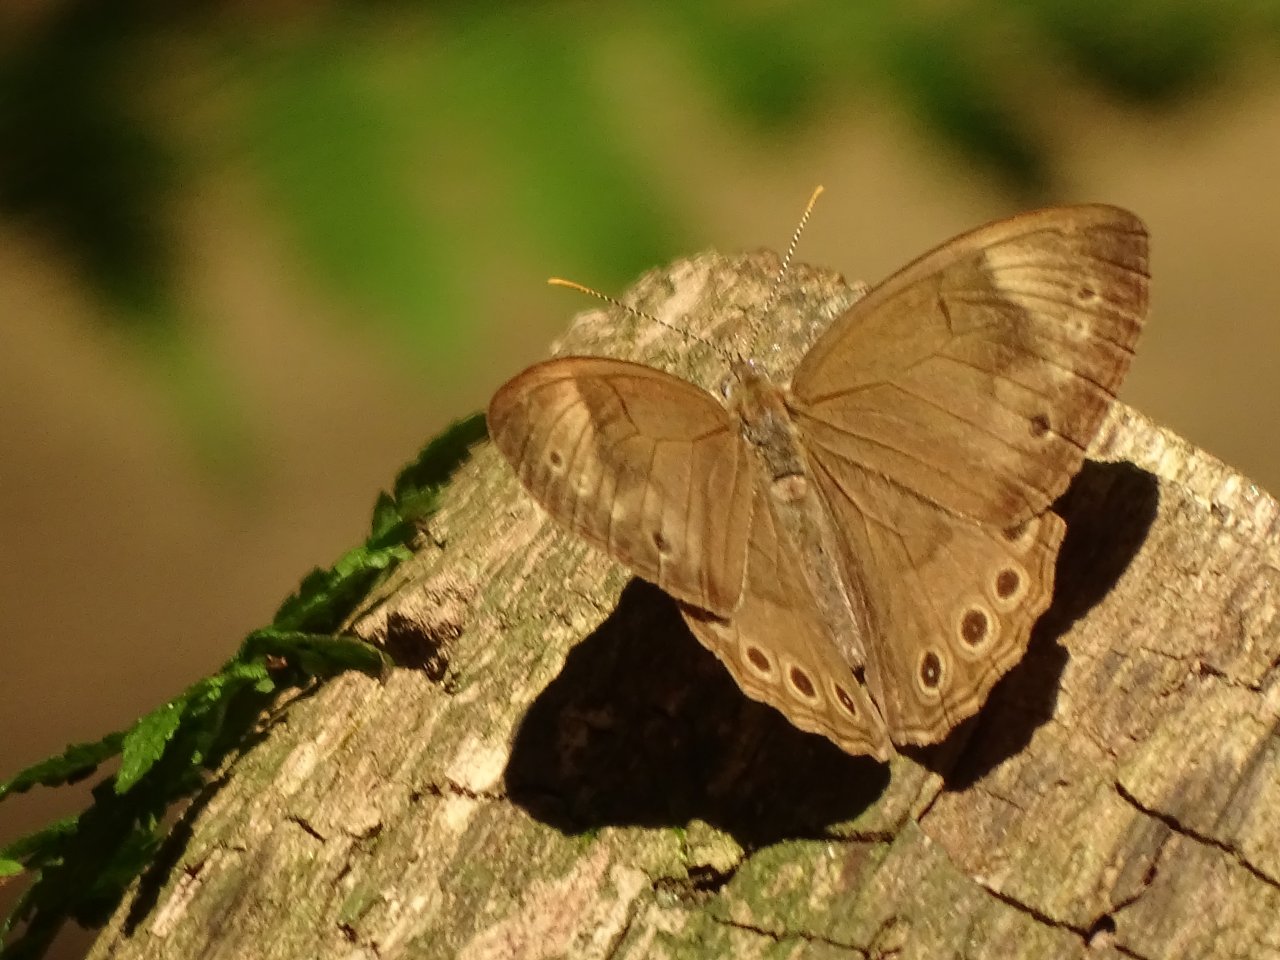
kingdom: Animalia
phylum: Arthropoda
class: Insecta
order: Lepidoptera
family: Nymphalidae
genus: Lethe
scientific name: Lethe eurydice
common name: Appalachian Eyed Brown
